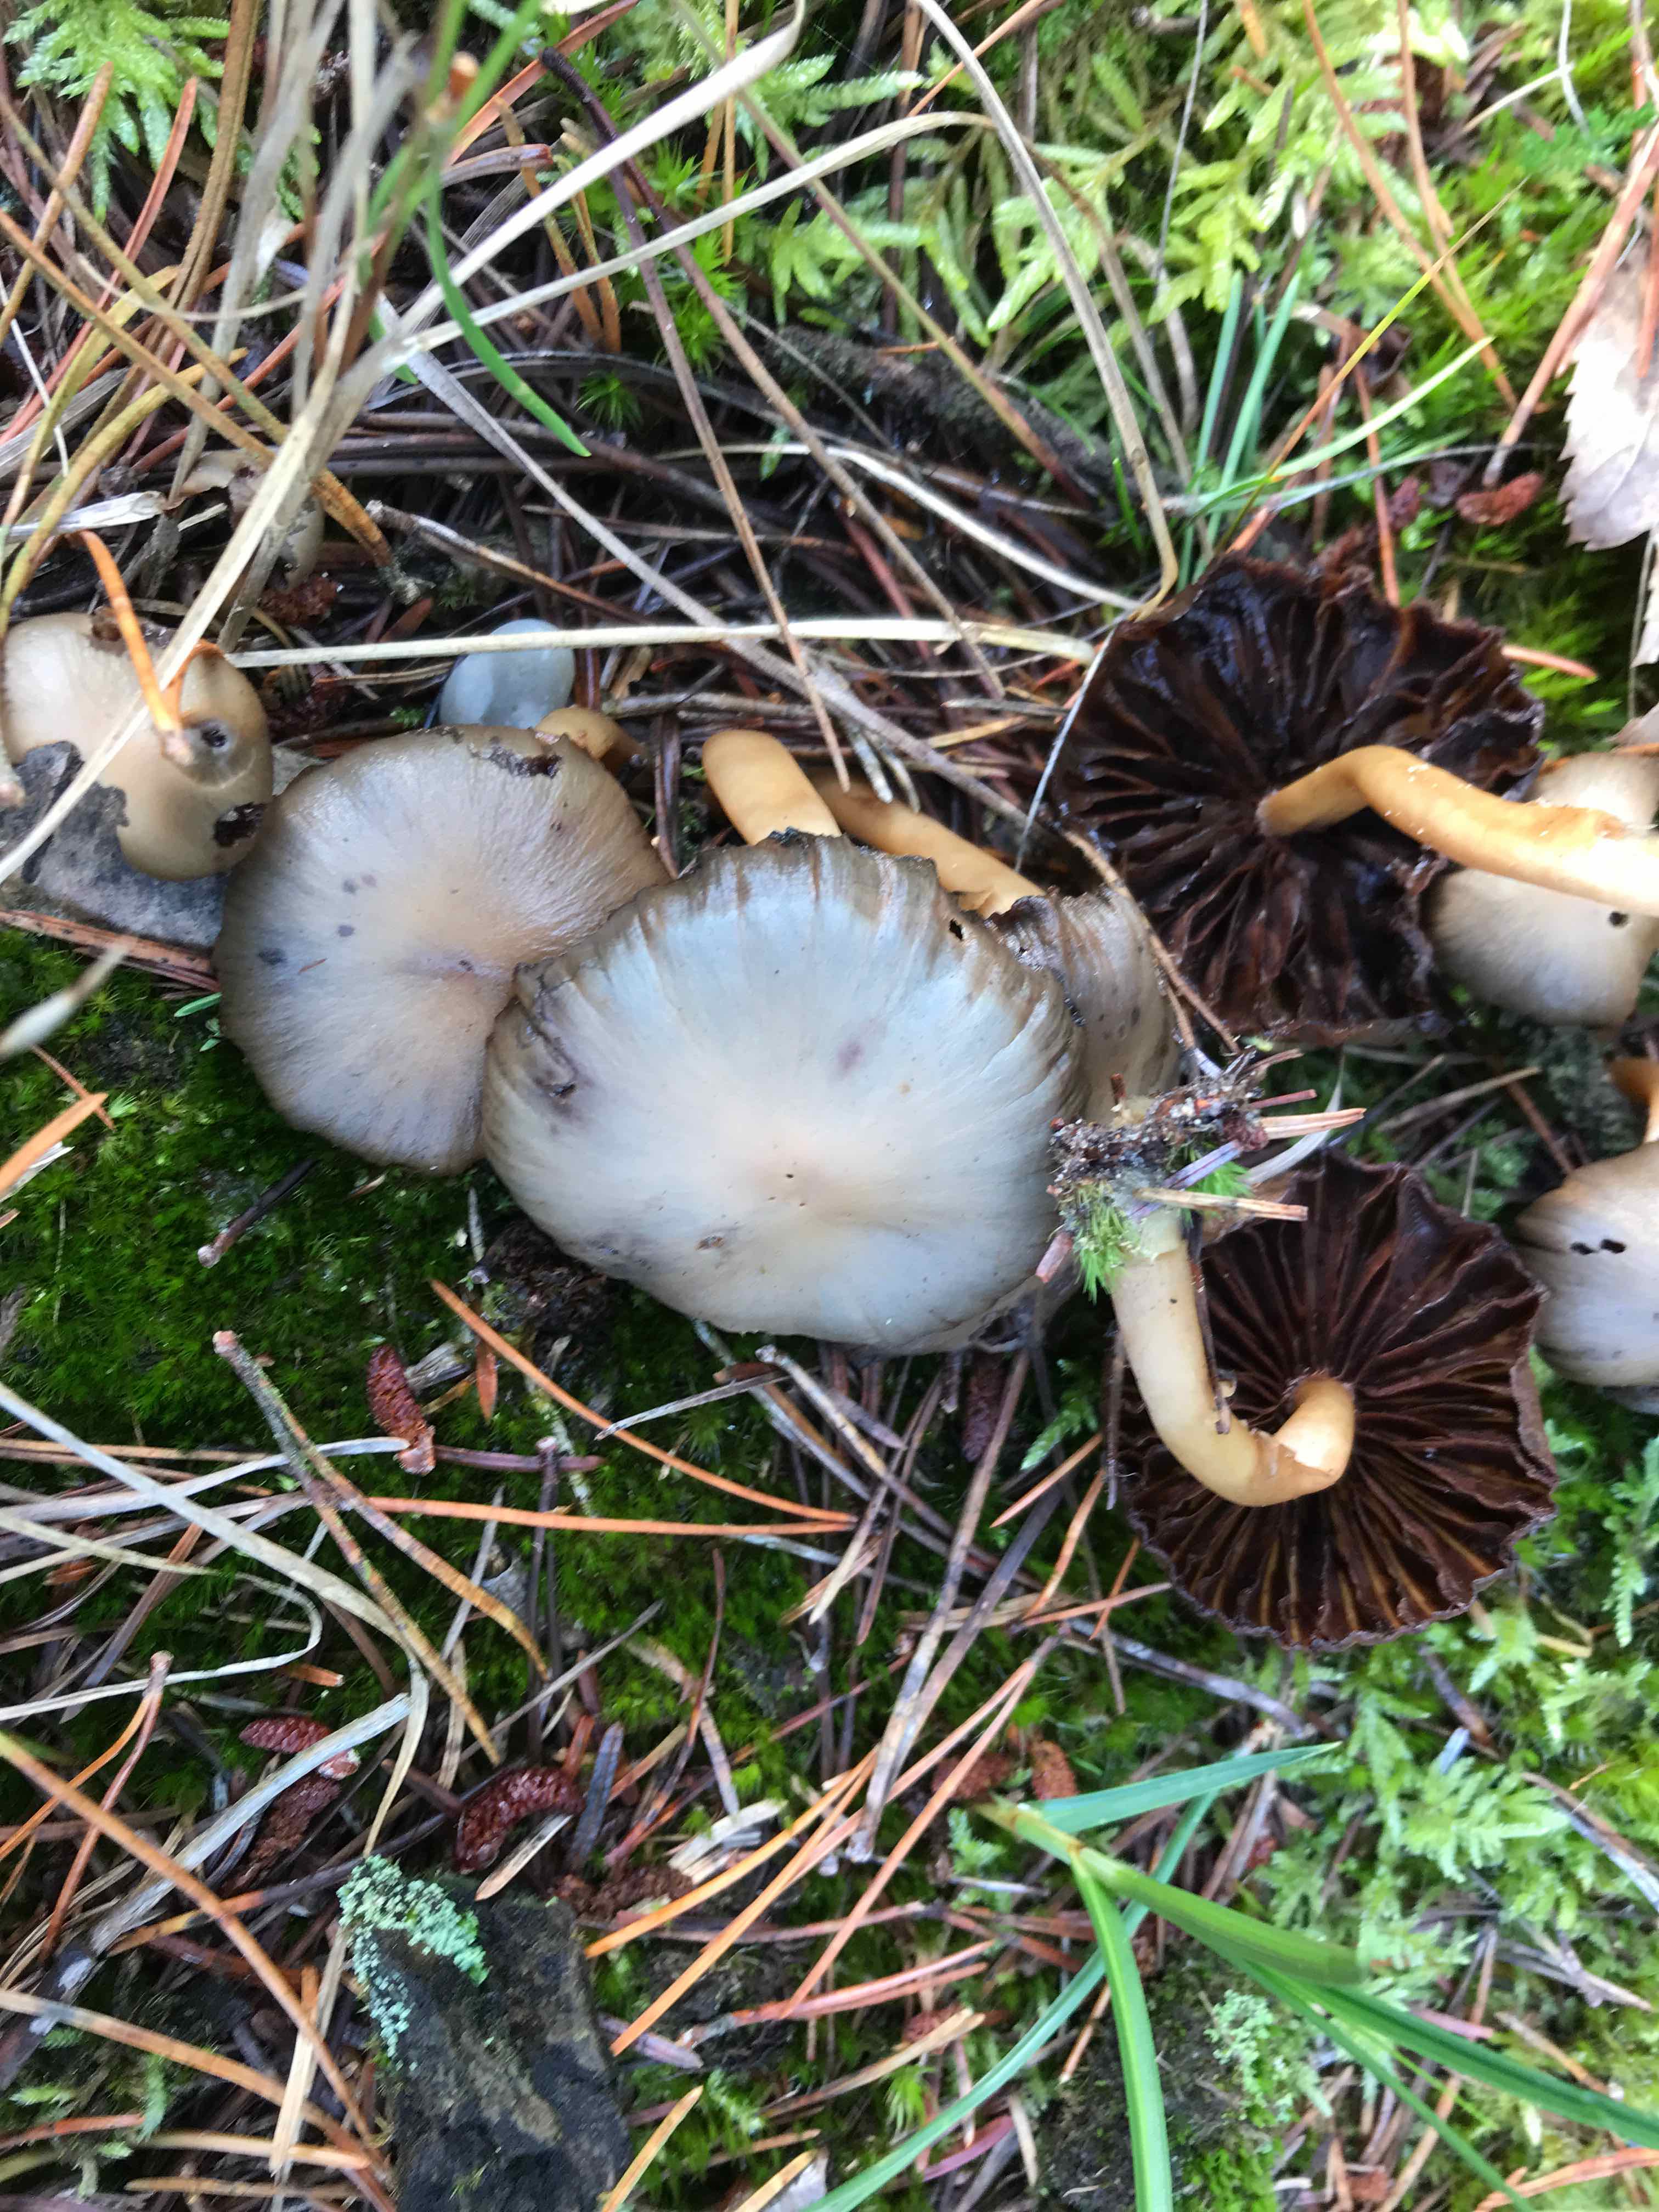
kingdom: Fungi
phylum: Basidiomycota
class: Agaricomycetes
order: Agaricales
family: Psathyrellaceae
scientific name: Psathyrellaceae
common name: mørkhatfamilien
